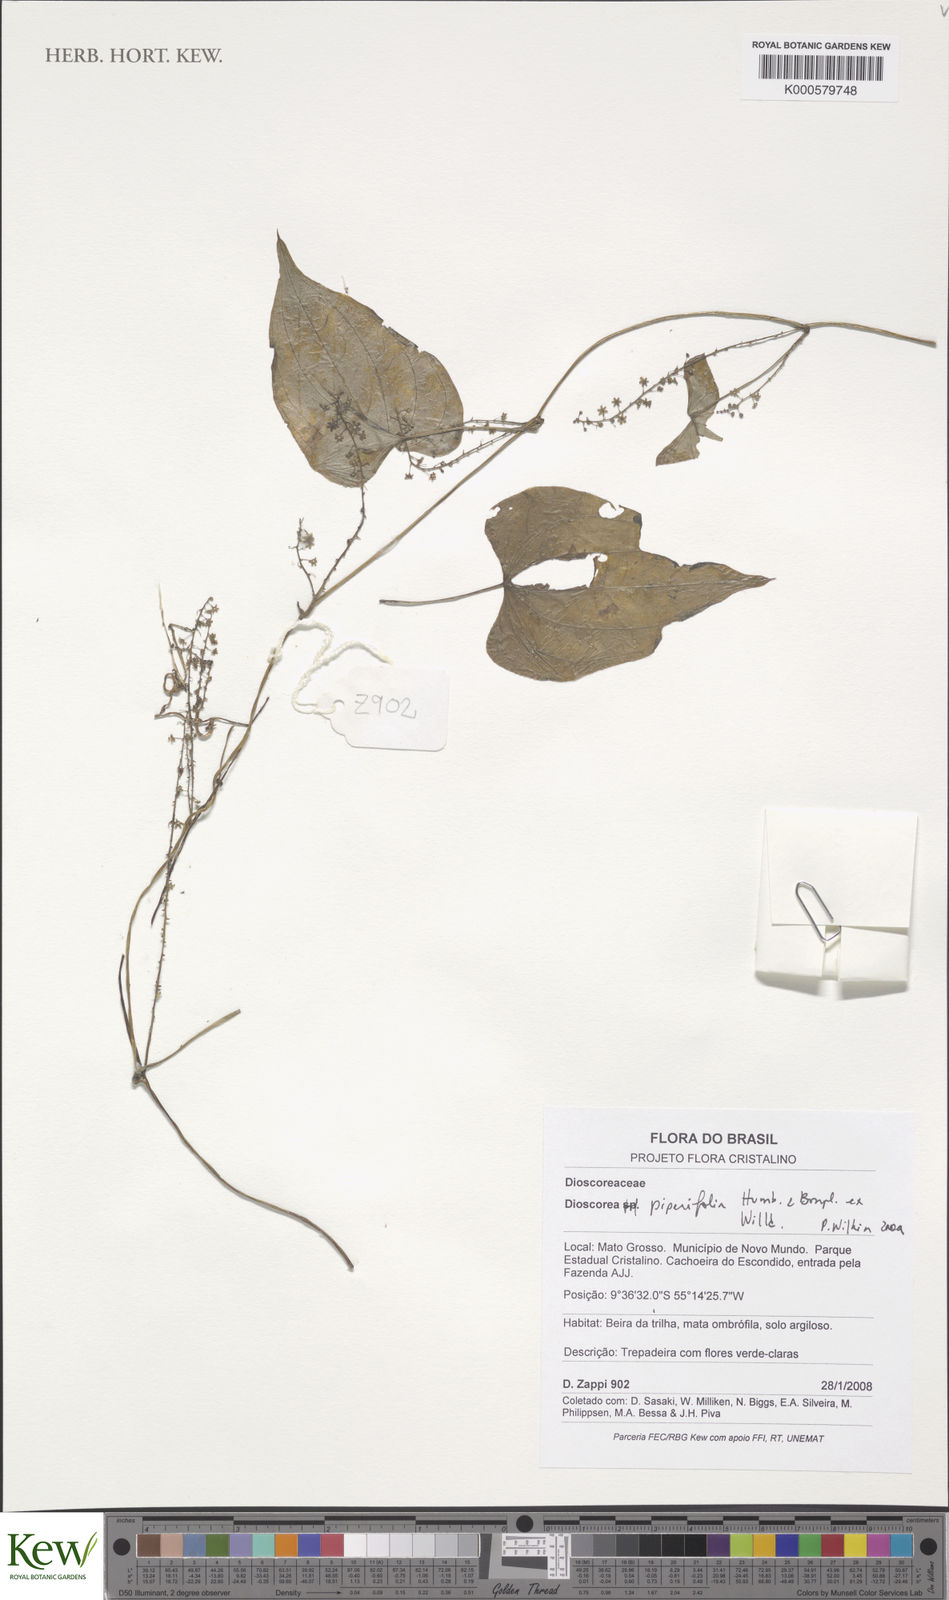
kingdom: Plantae
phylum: Tracheophyta
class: Liliopsida
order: Dioscoreales
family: Dioscoreaceae
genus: Dioscorea
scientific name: Dioscorea piperifolia
